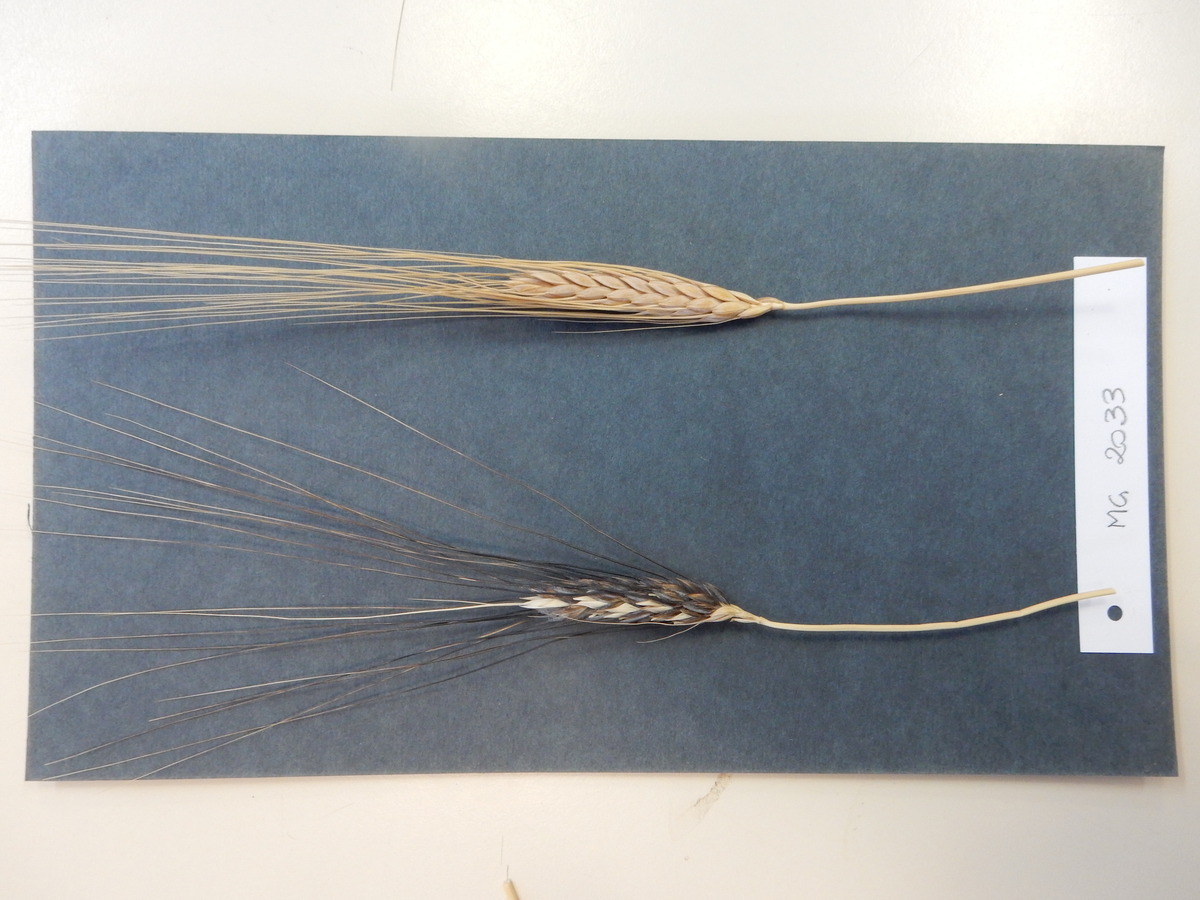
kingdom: Plantae
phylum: Tracheophyta
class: Liliopsida
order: Poales
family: Poaceae
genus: Triticum
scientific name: Triticum turgidum
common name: Wheat
